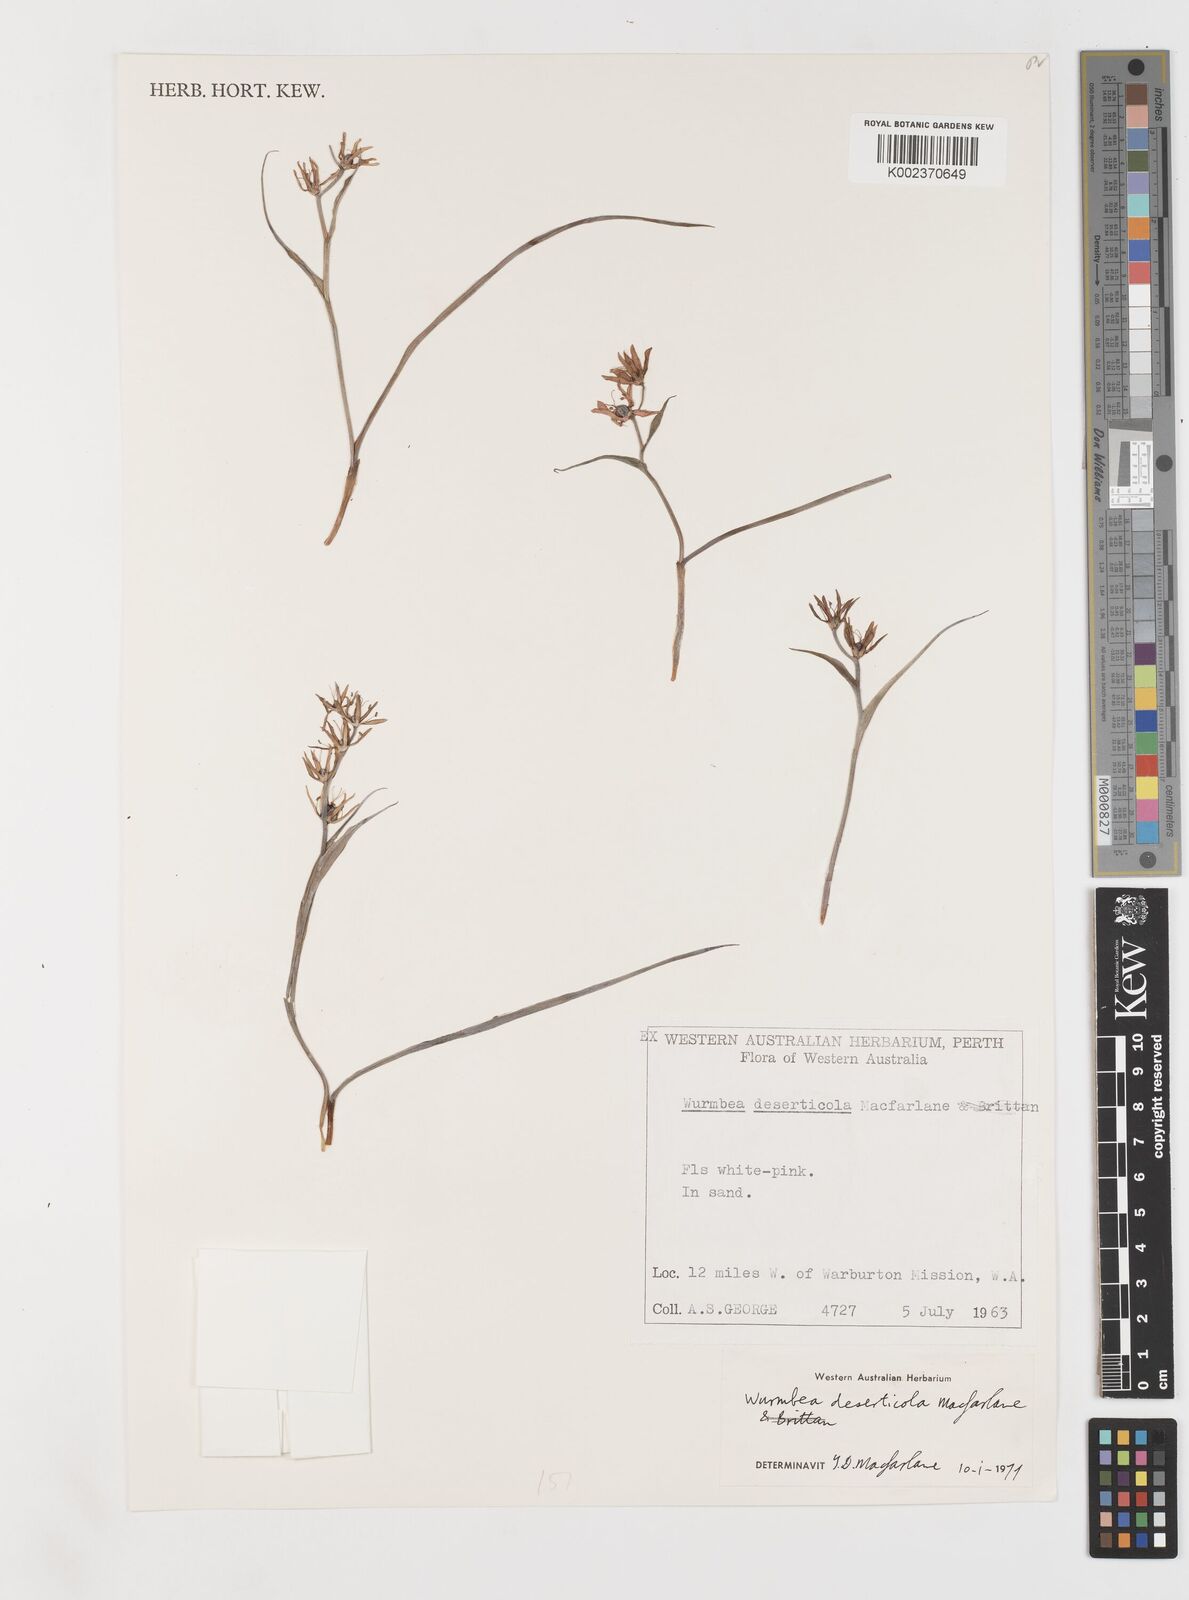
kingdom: Plantae
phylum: Tracheophyta
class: Liliopsida
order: Liliales
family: Colchicaceae
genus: Wurmbea
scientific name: Wurmbea deserticola
